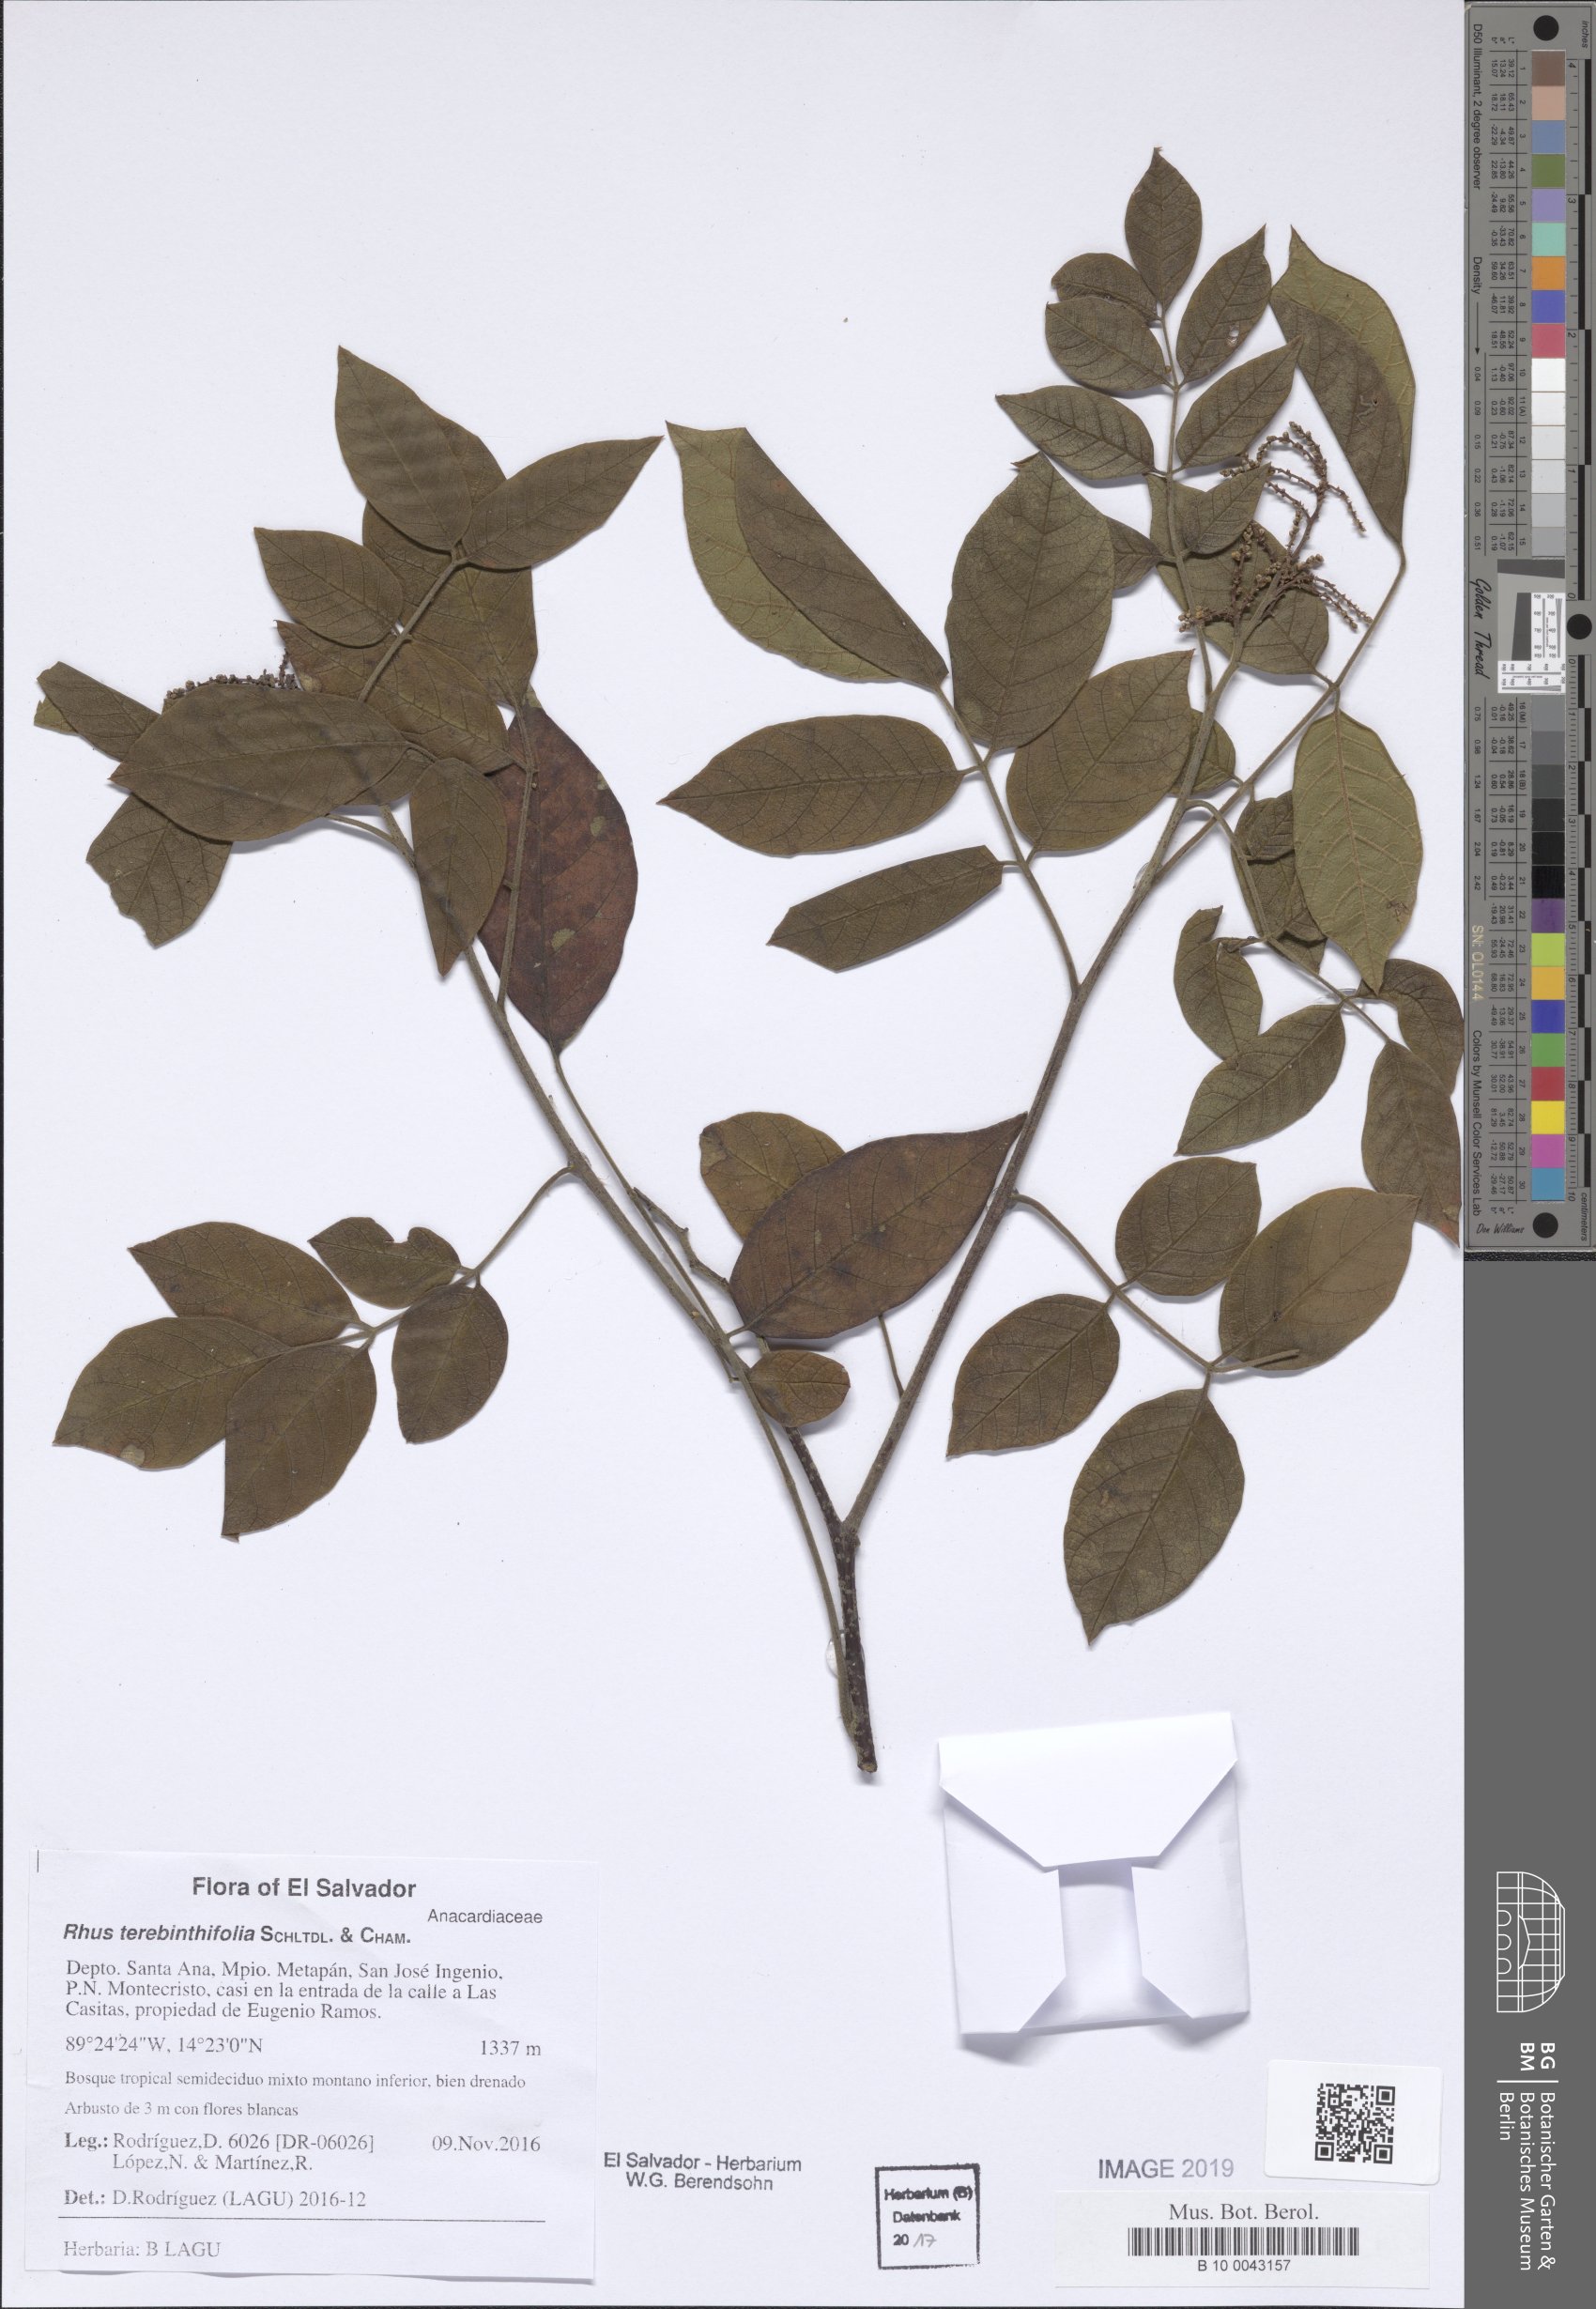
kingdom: Plantae
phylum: Tracheophyta
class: Magnoliopsida
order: Sapindales
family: Anacardiaceae
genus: Rhus
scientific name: Rhus terebinthifolia
